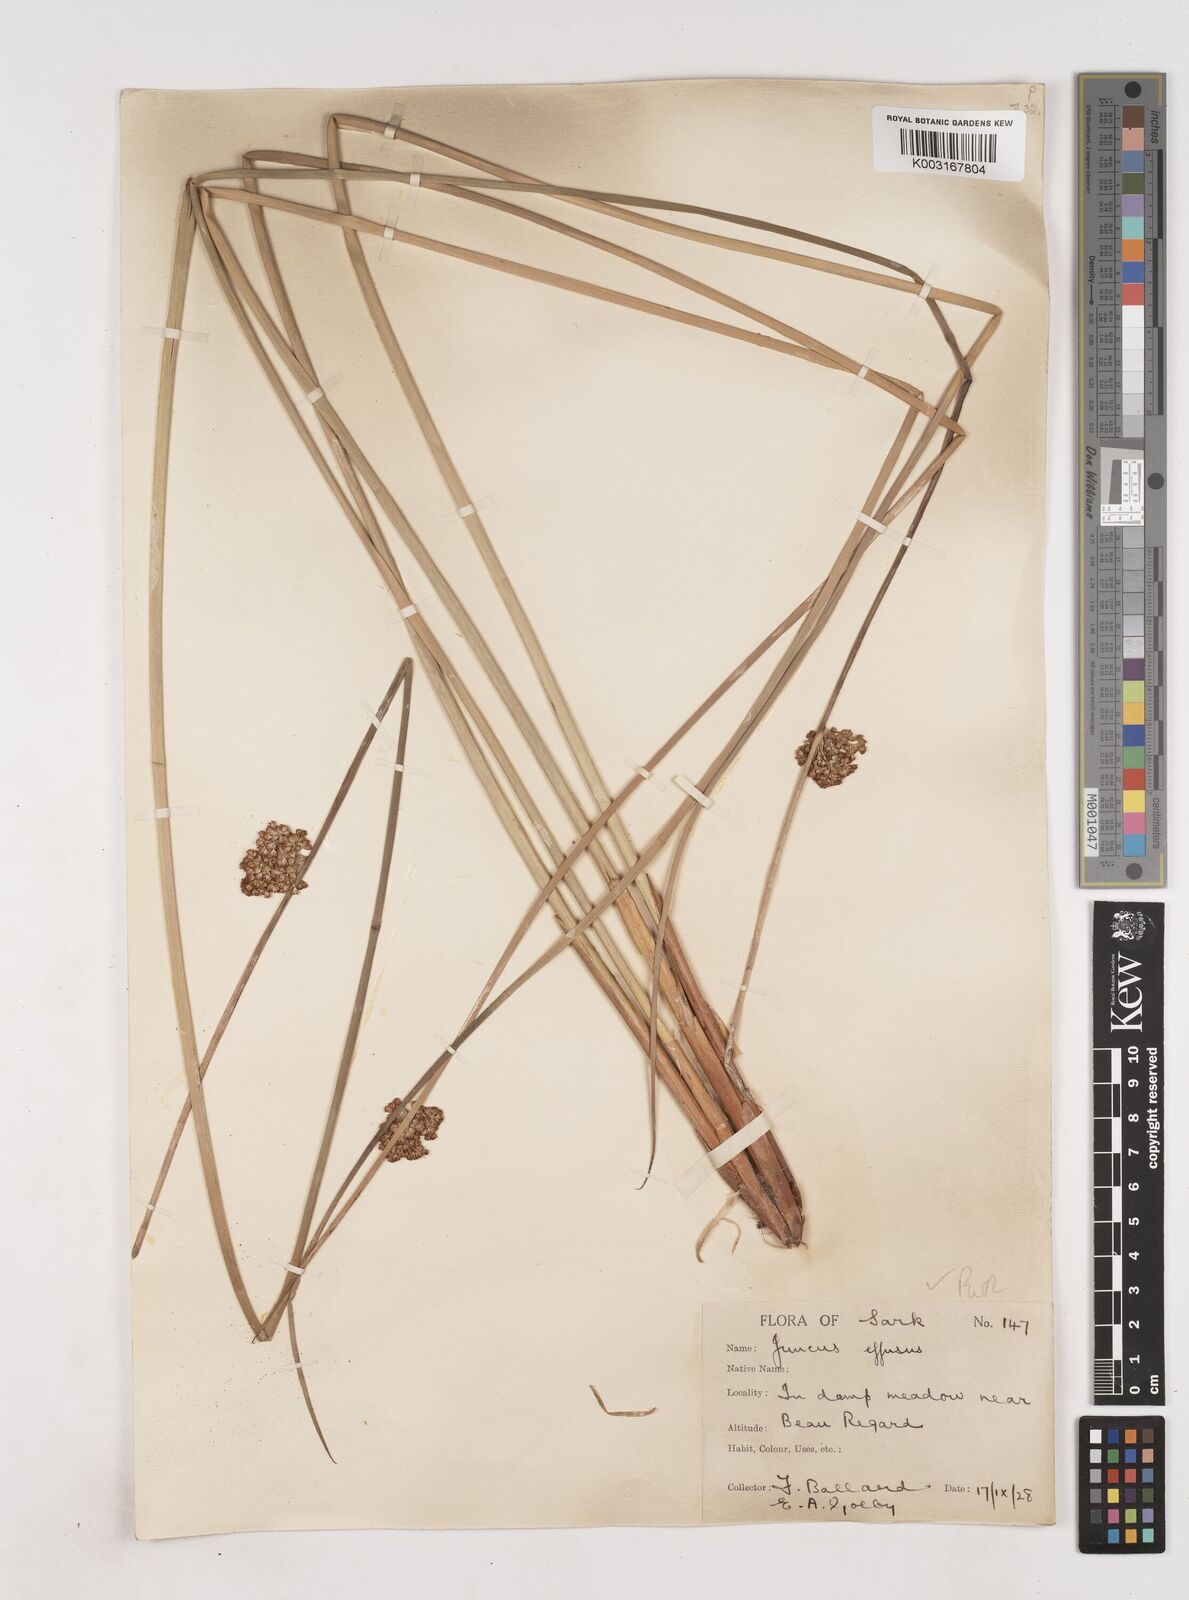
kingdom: Plantae
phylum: Tracheophyta
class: Liliopsida
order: Poales
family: Juncaceae
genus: Juncus
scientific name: Juncus effusus
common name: Soft rush
